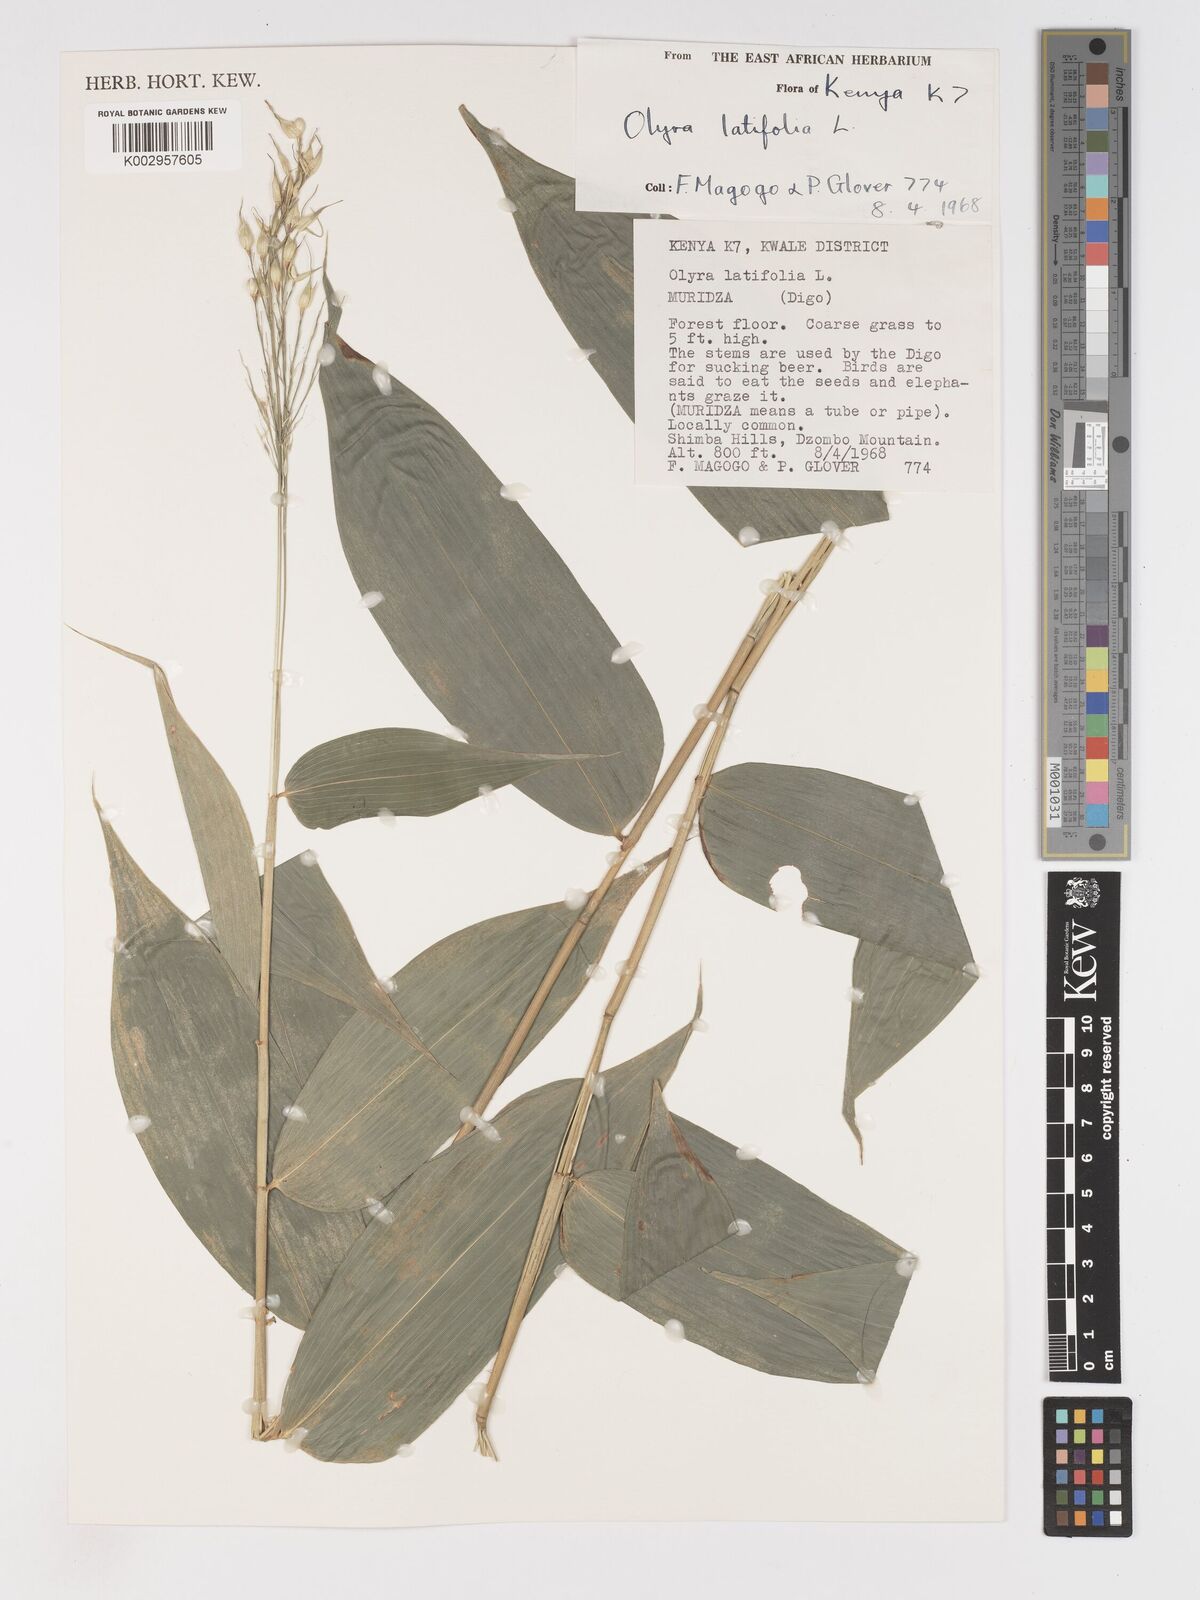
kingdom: Plantae
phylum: Tracheophyta
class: Liliopsida
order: Poales
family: Poaceae
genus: Olyra
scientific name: Olyra latifolia
